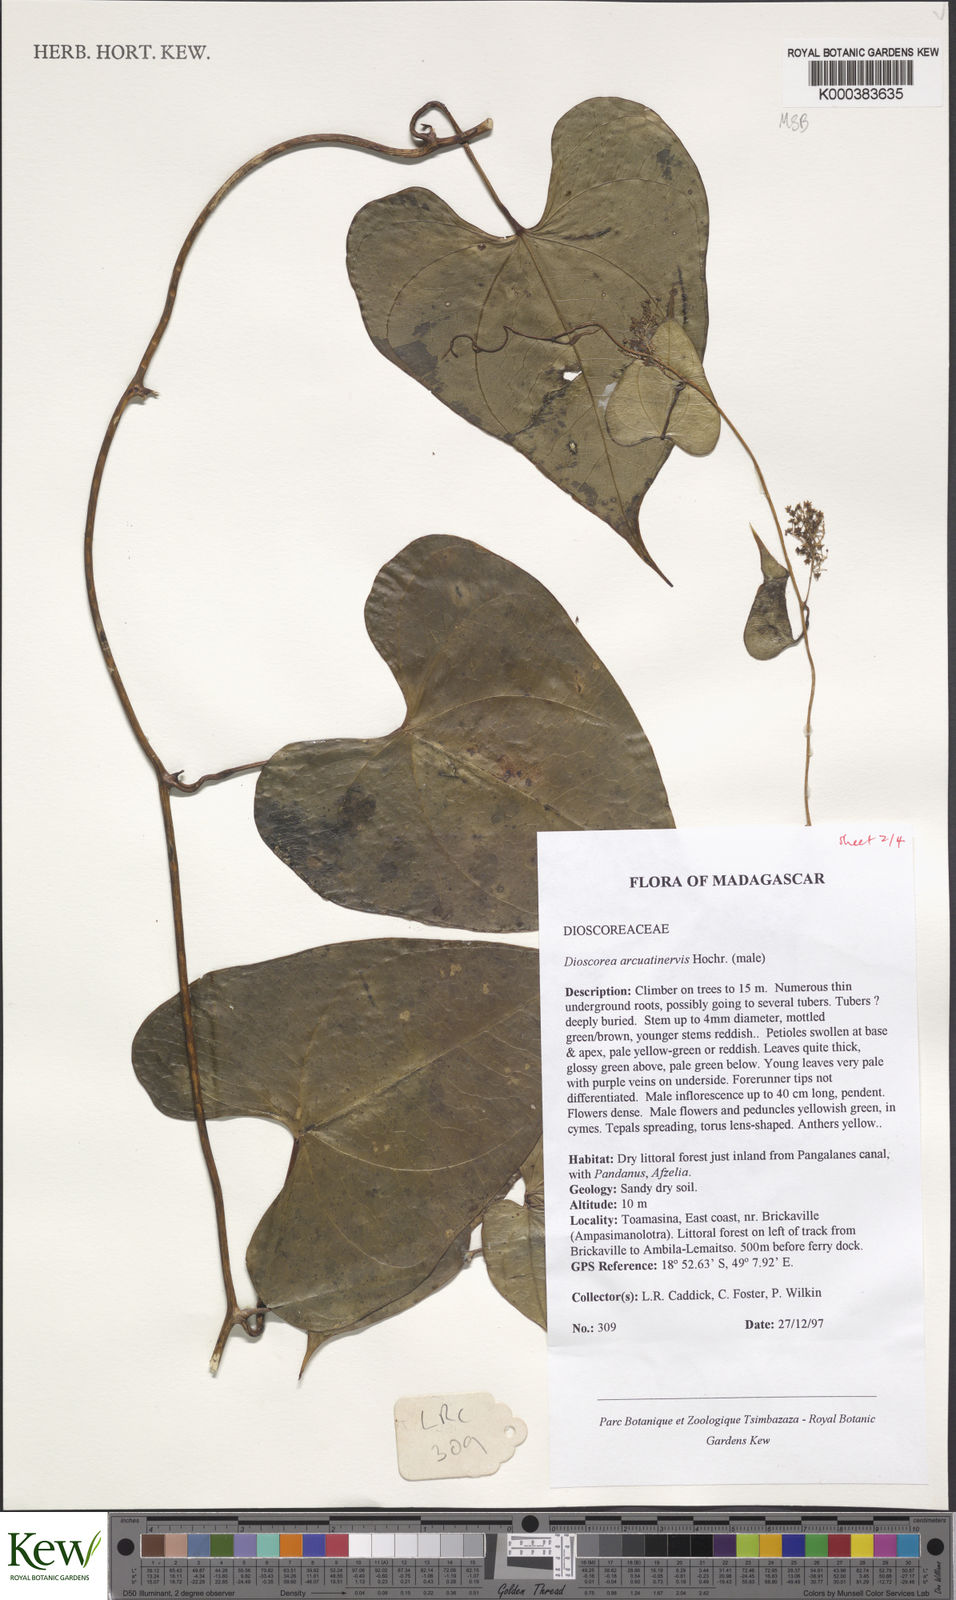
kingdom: Plantae
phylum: Tracheophyta
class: Liliopsida
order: Dioscoreales
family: Dioscoreaceae
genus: Dioscorea
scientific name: Dioscorea arcuatinervis
